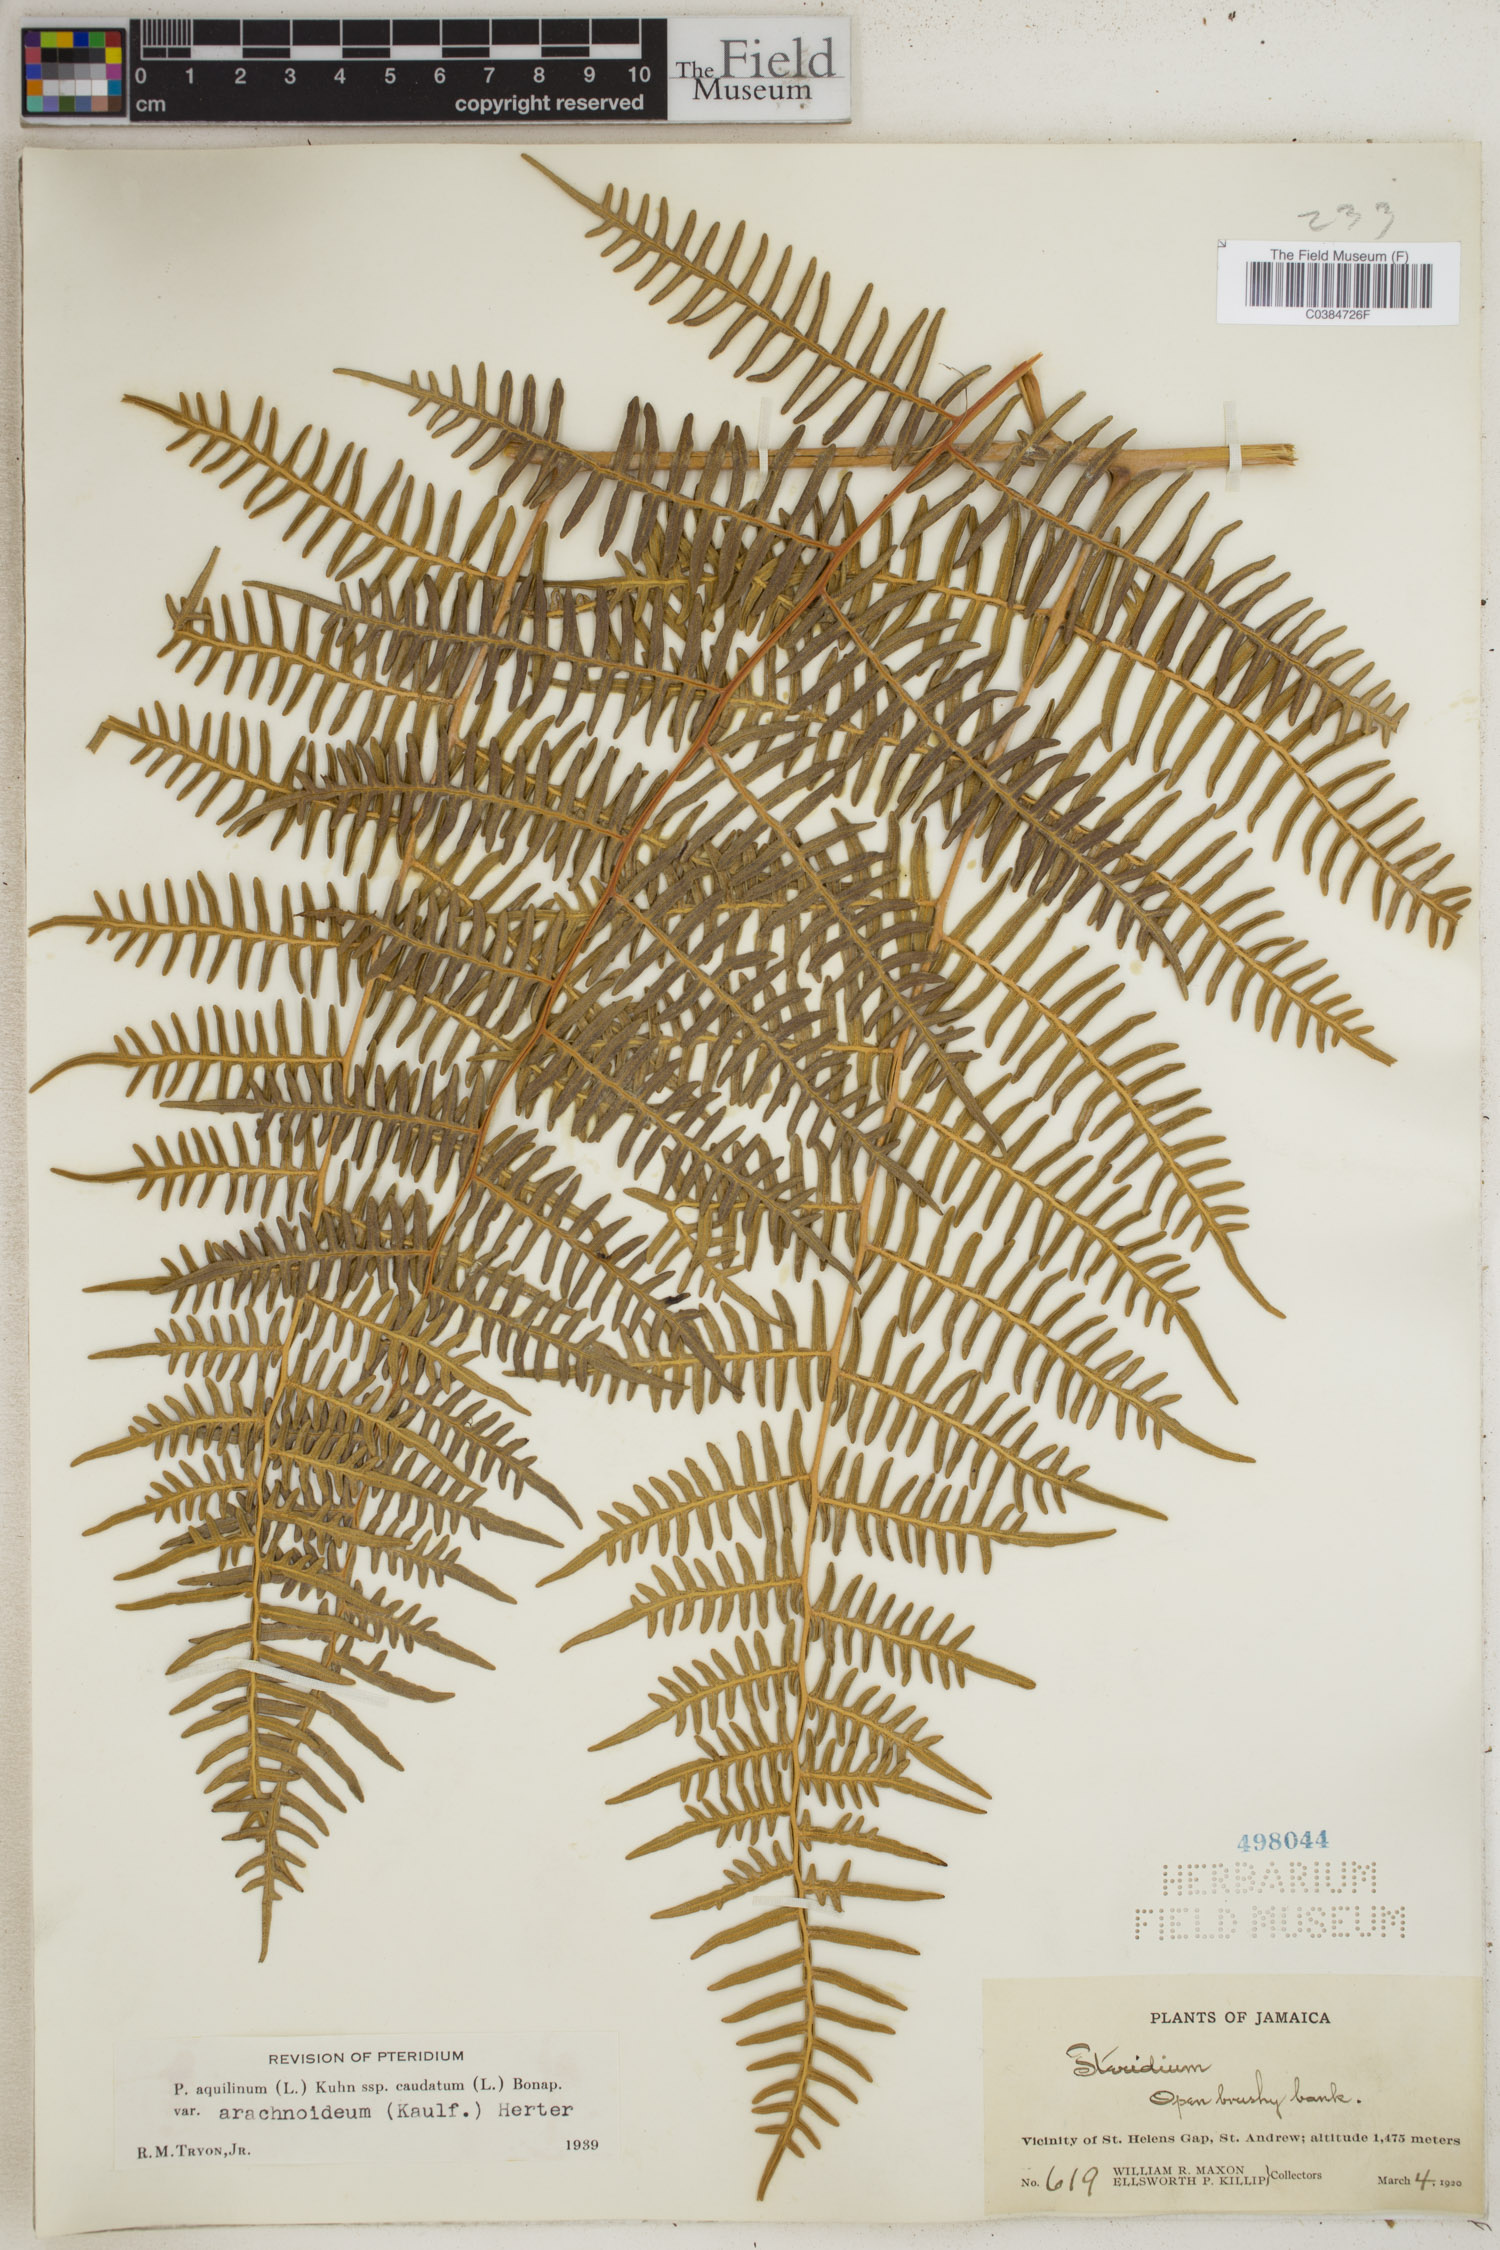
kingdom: Plantae
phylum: Tracheophyta
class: Polypodiopsida
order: Polypodiales
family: Dennstaedtiaceae
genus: Pteridium
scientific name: Pteridium esculentum
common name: Bracken fern
